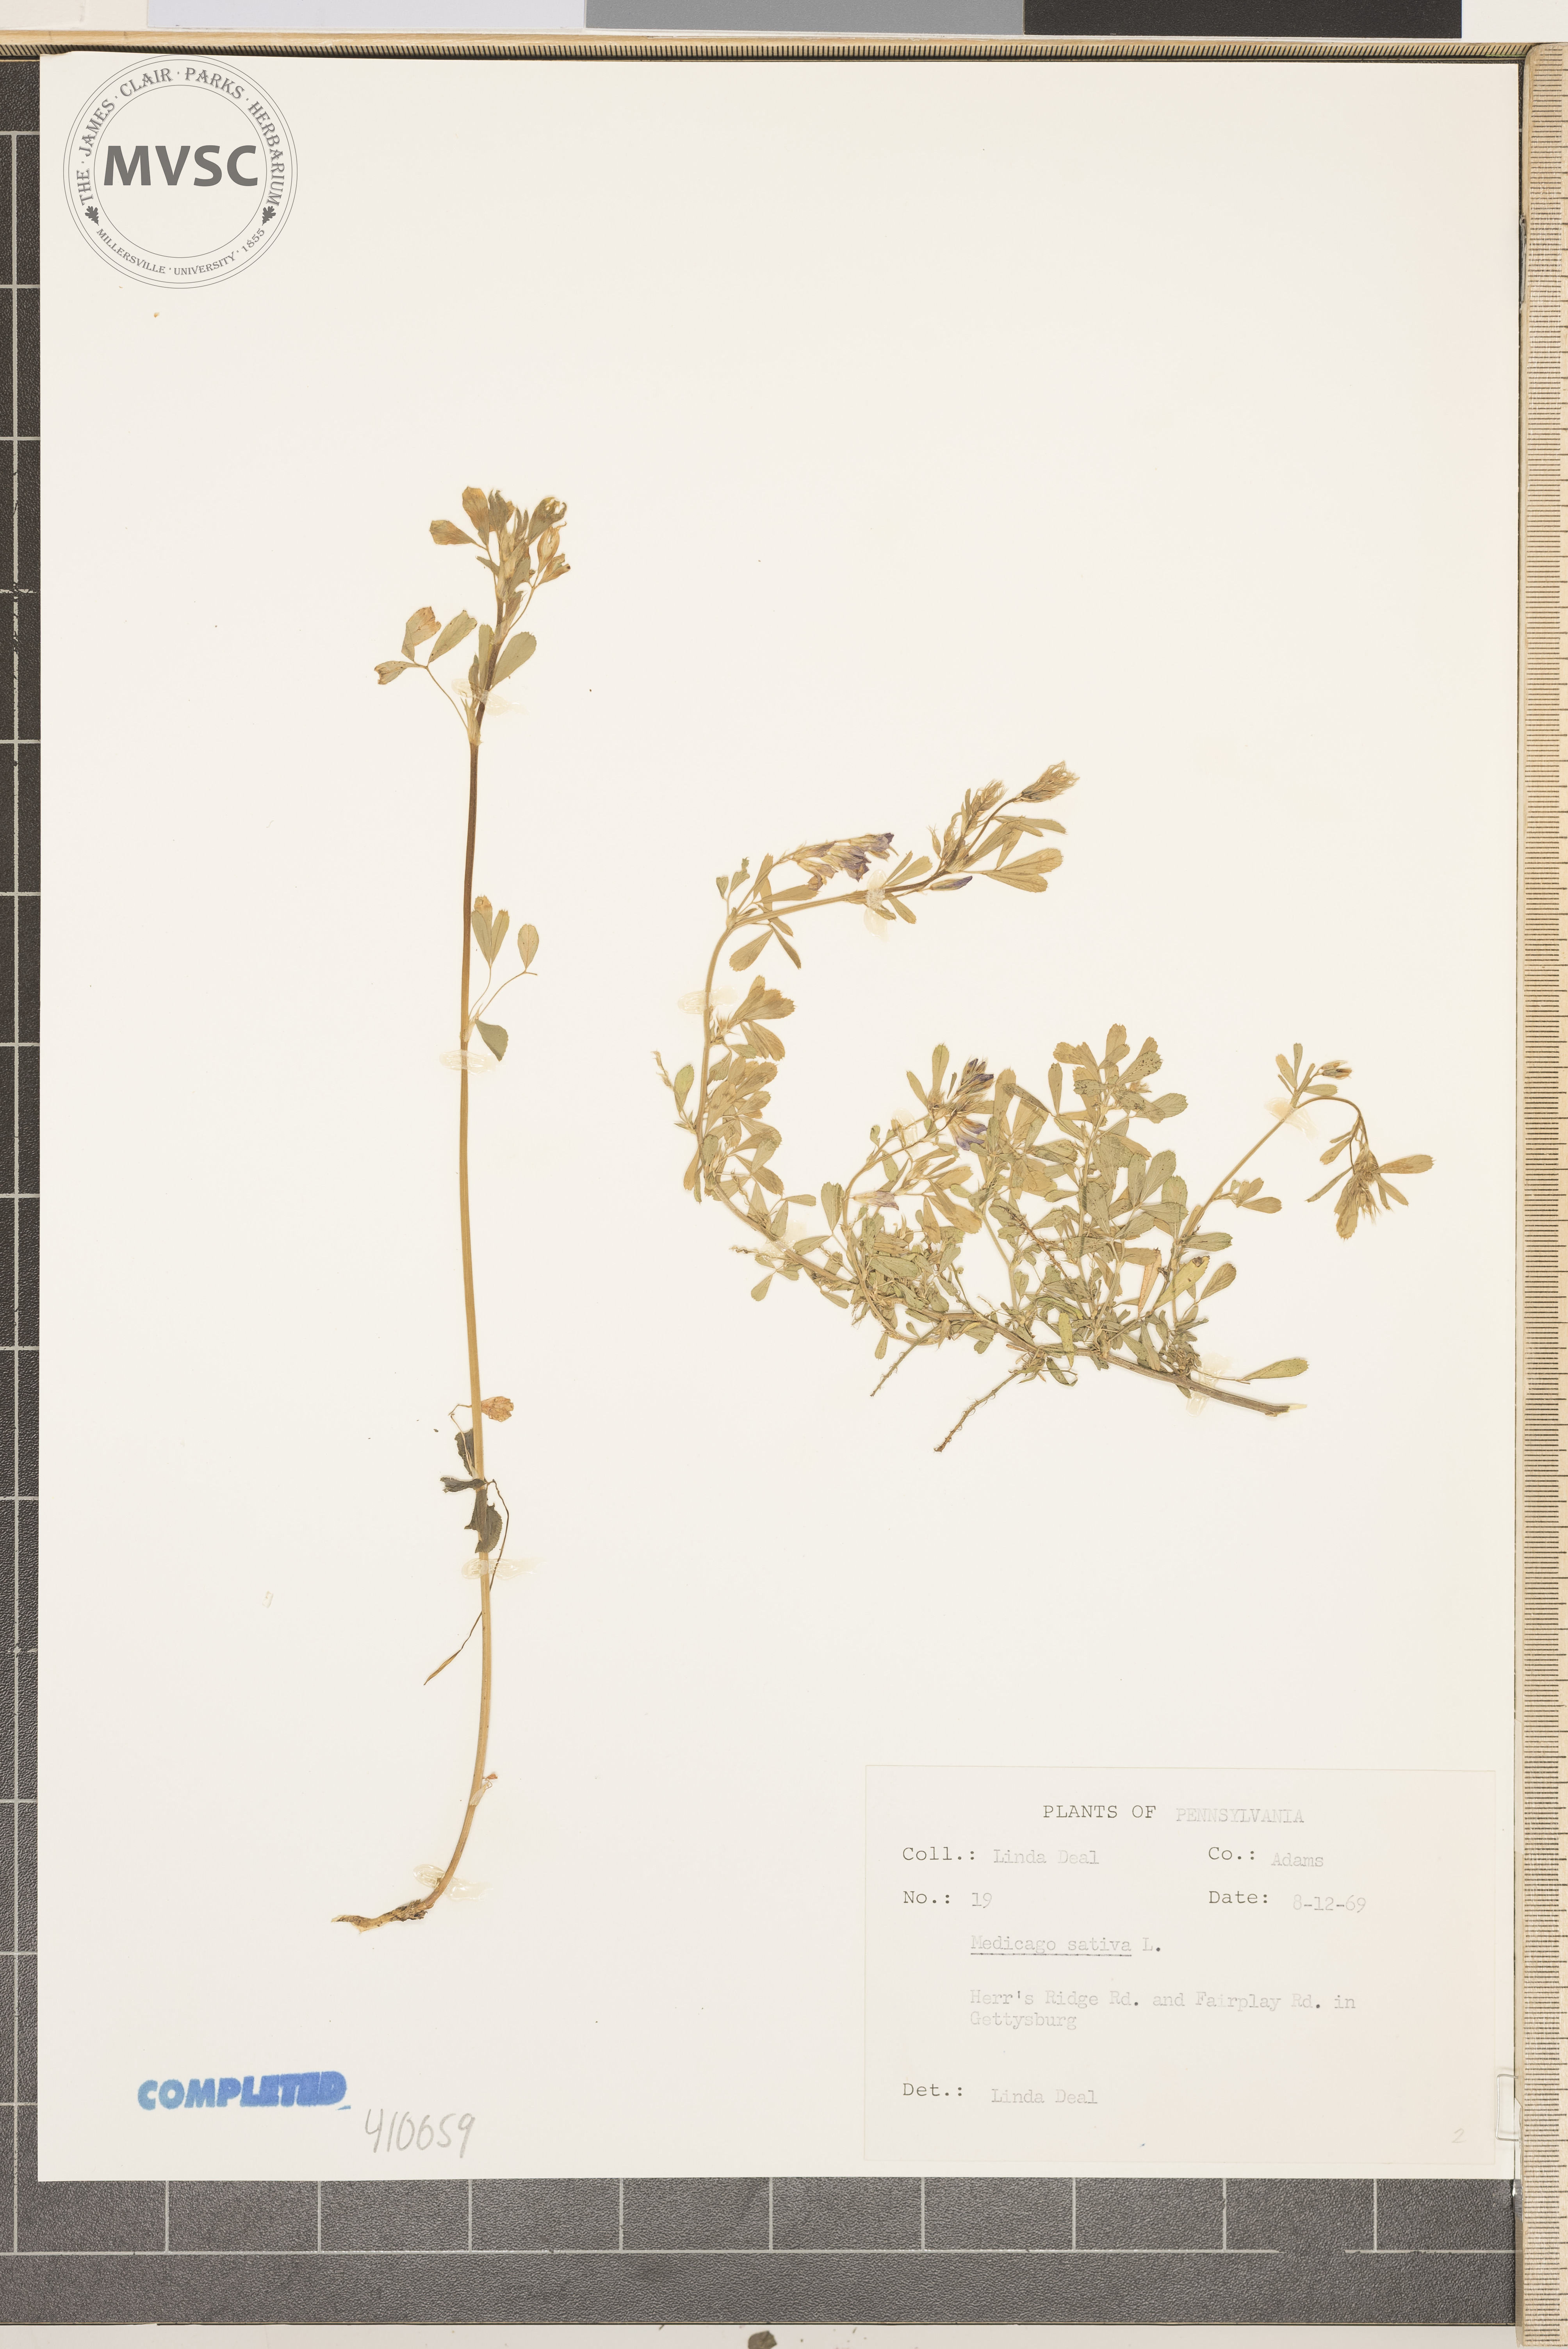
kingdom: Plantae
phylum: Tracheophyta
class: Magnoliopsida
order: Fabales
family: Fabaceae
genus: Medicago
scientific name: Medicago sativa
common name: alfalfa
